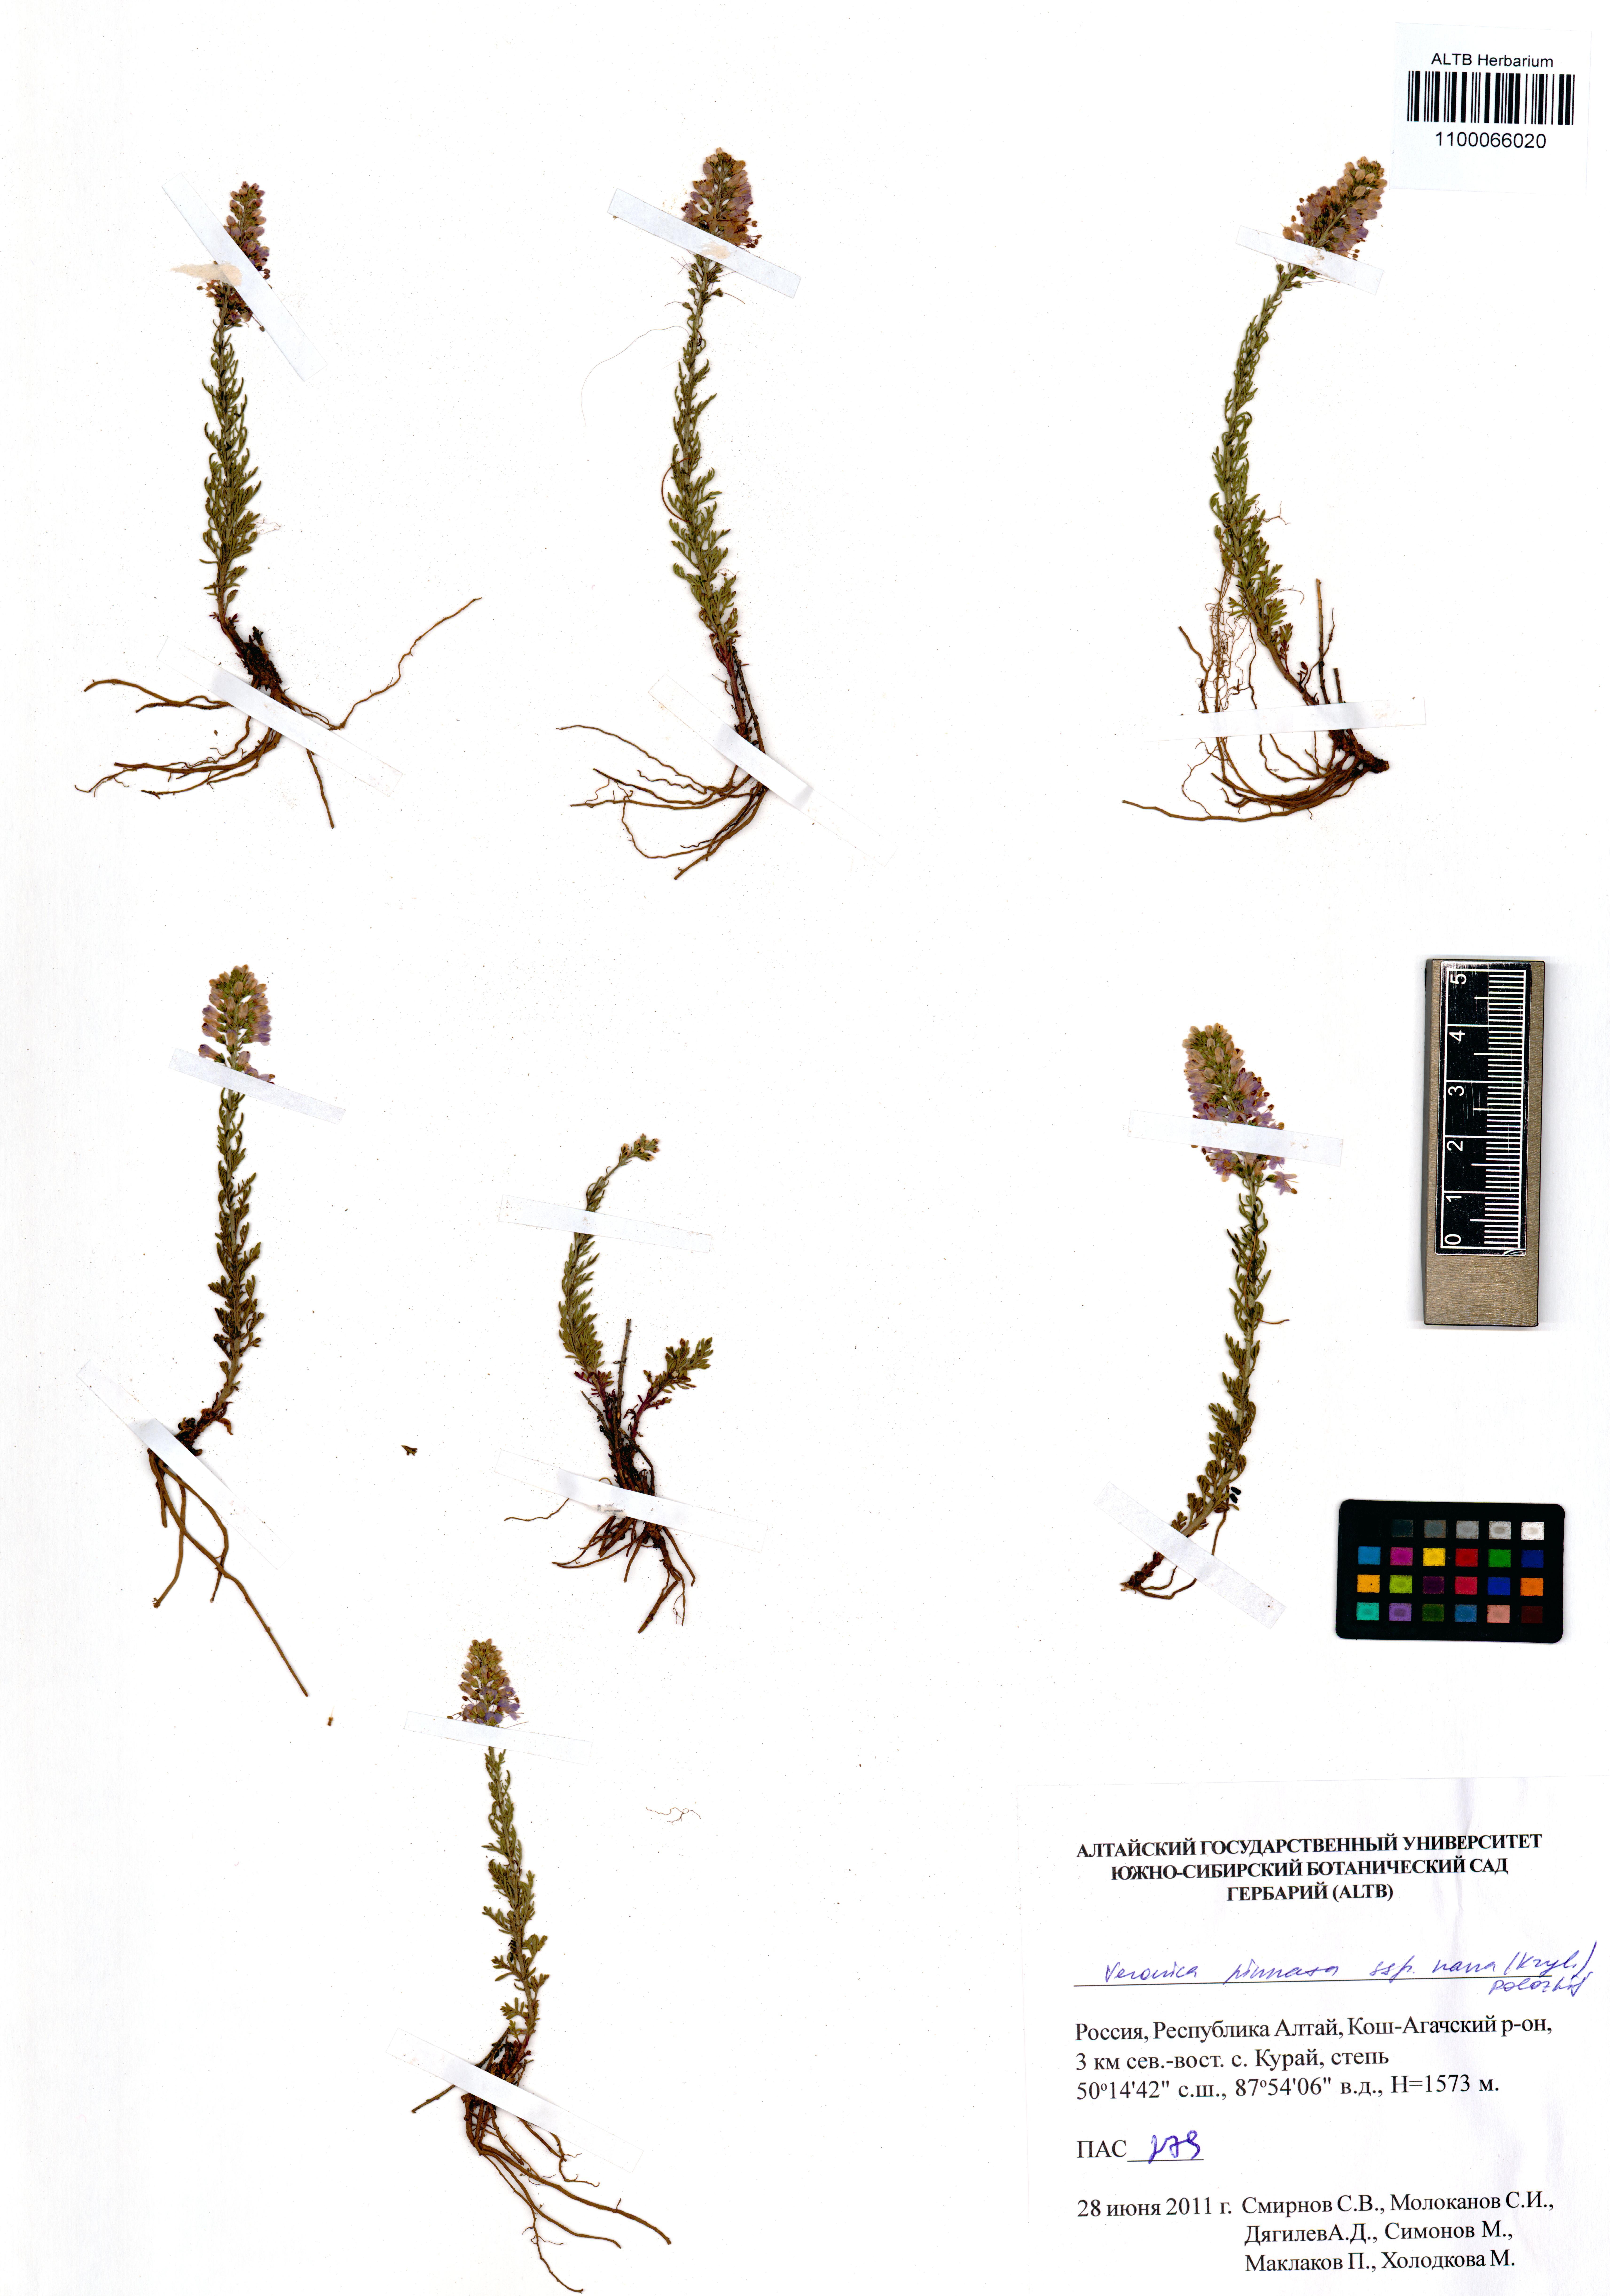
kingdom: Plantae
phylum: Tracheophyta
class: Magnoliopsida
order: Lamiales
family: Plantaginaceae
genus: Veronica
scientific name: Veronica pinnata
